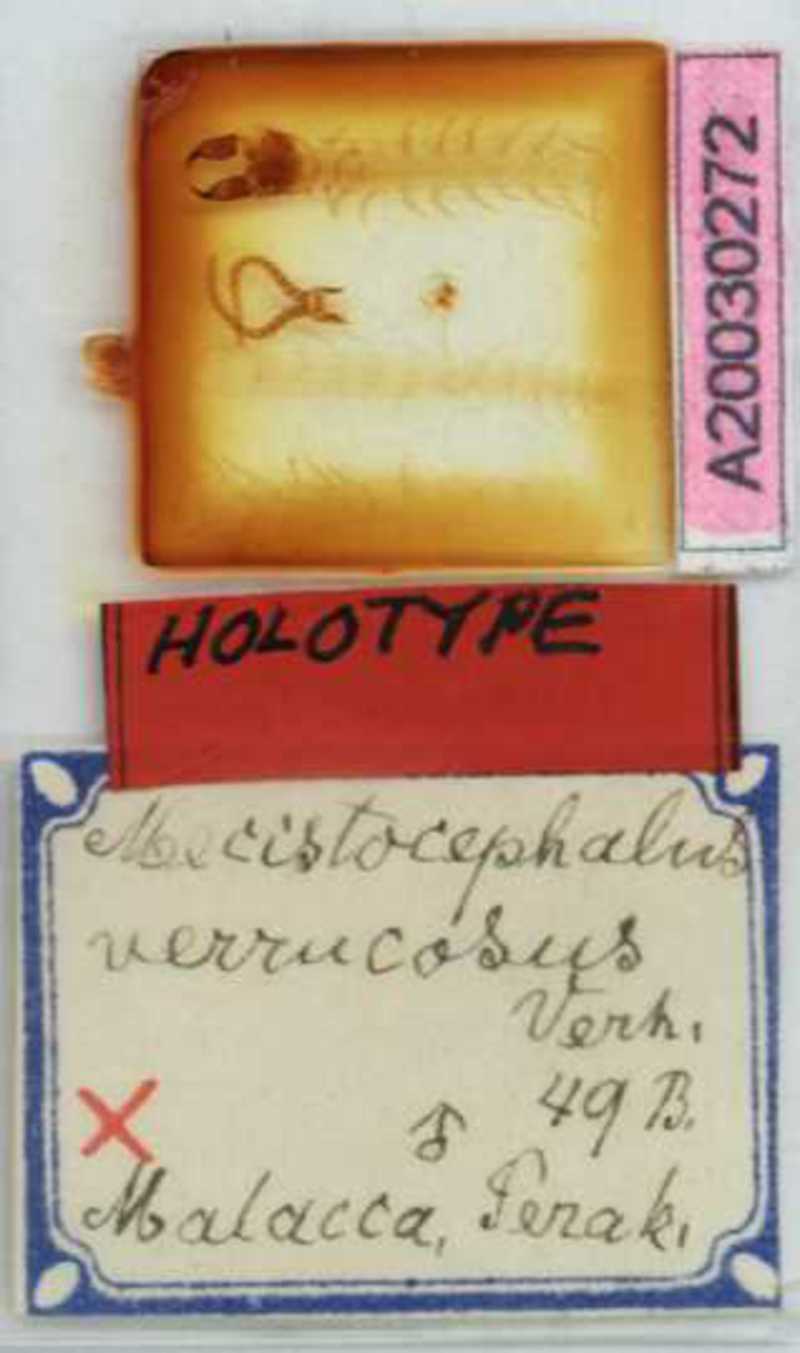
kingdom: Animalia
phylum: Arthropoda
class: Chilopoda
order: Geophilomorpha
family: Mecistocephalidae
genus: Mecistocephalus
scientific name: Mecistocephalus verrucosus
